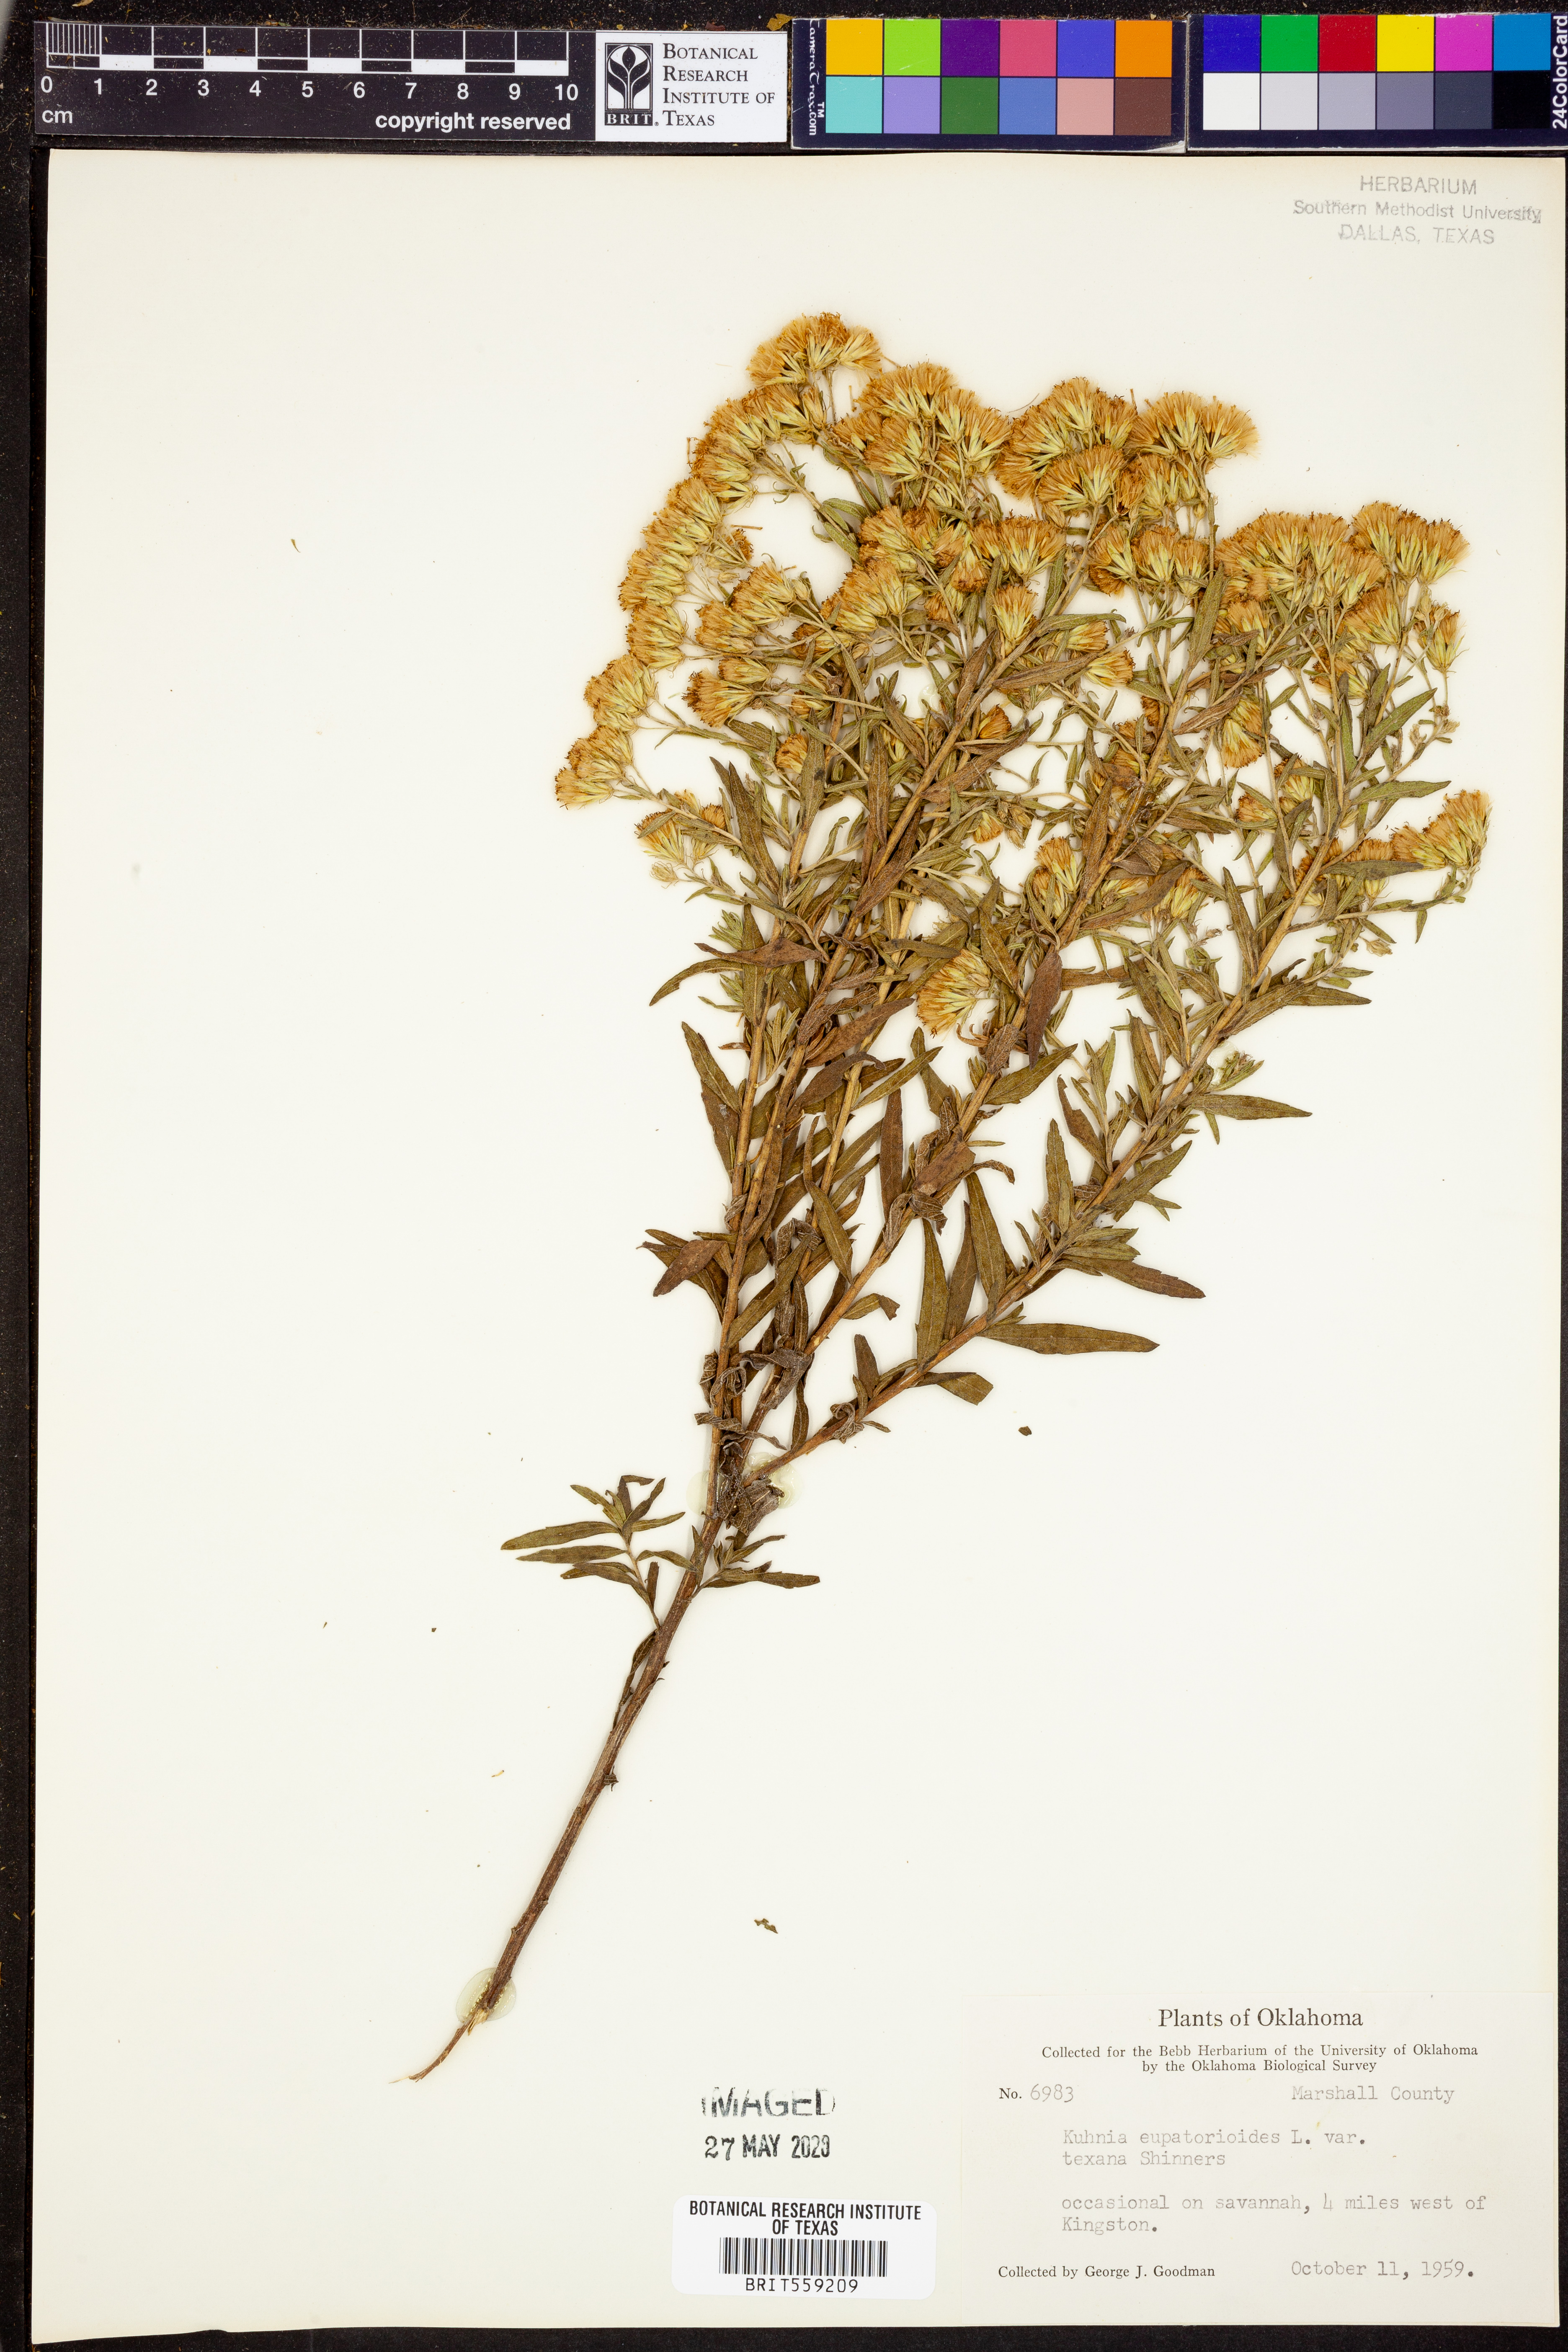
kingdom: Plantae
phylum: Tracheophyta
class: Magnoliopsida
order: Asterales
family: Asteraceae
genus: Brickellia
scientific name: Brickellia
